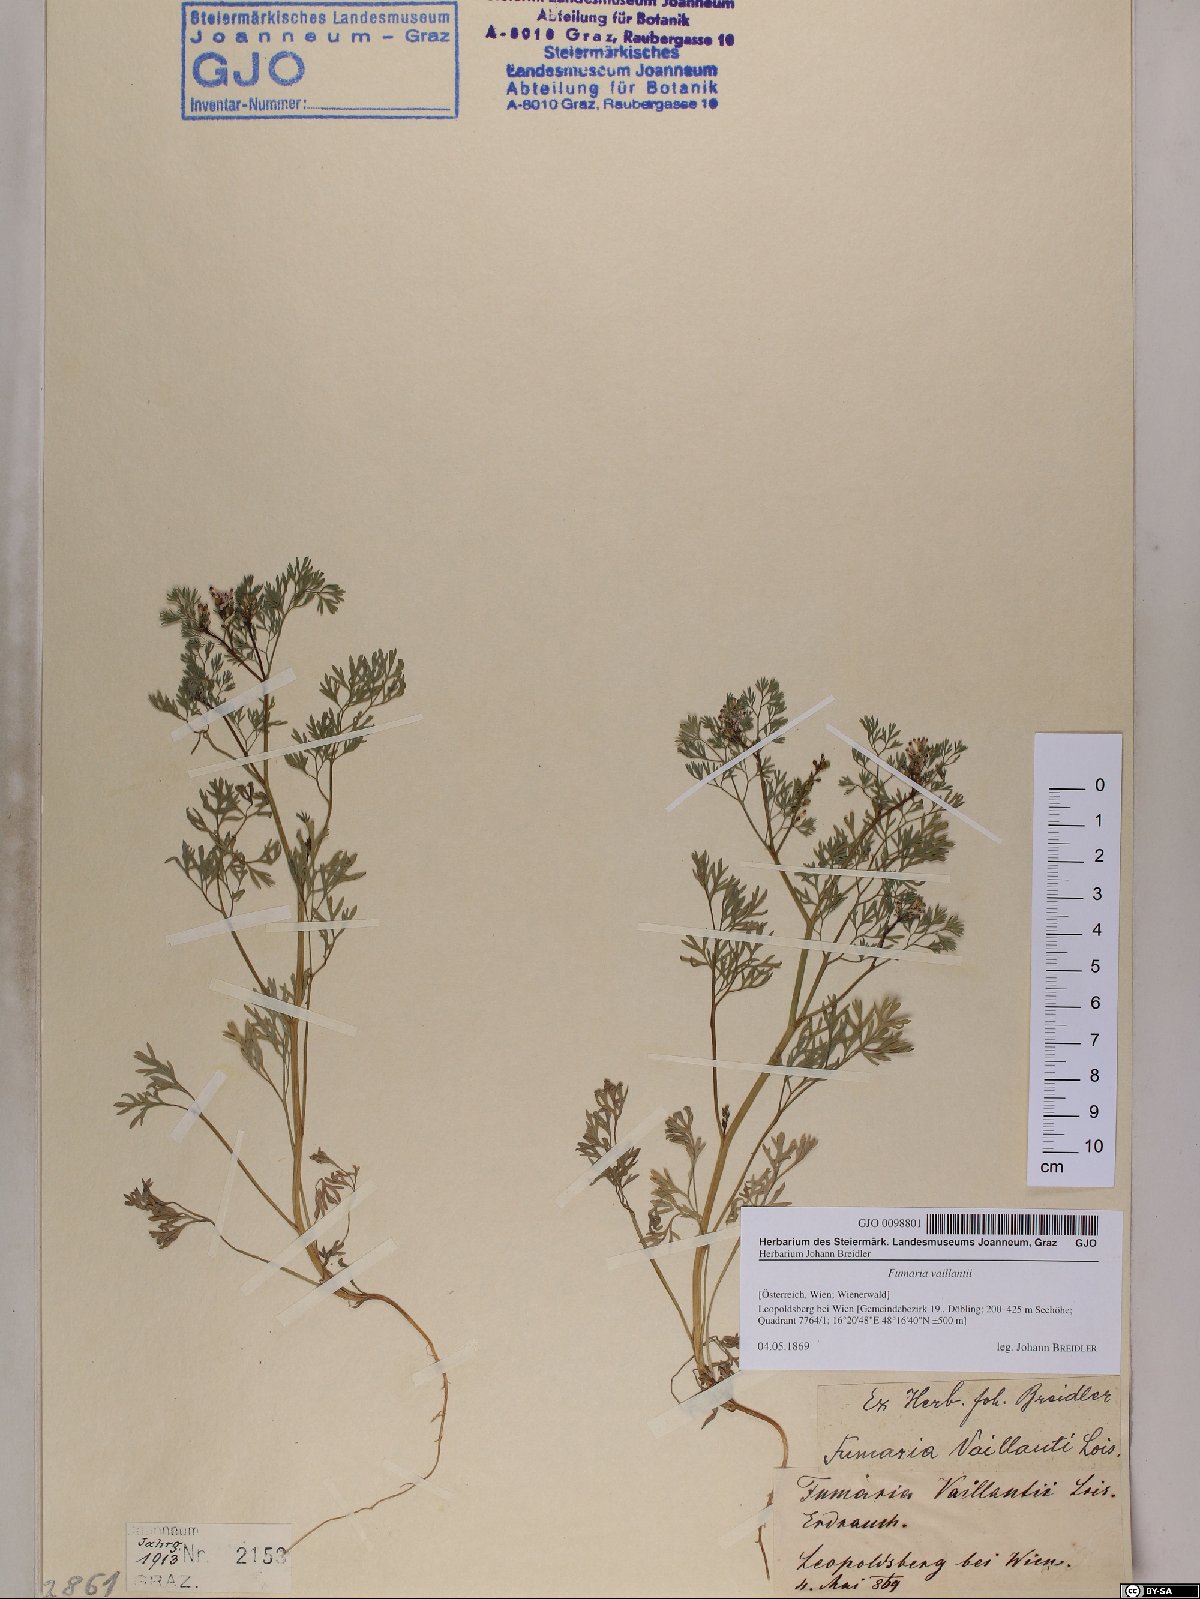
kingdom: Plantae
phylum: Tracheophyta
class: Magnoliopsida
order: Ranunculales
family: Papaveraceae
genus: Fumaria
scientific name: Fumaria vaillantii
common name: Few-flowered fumitory
